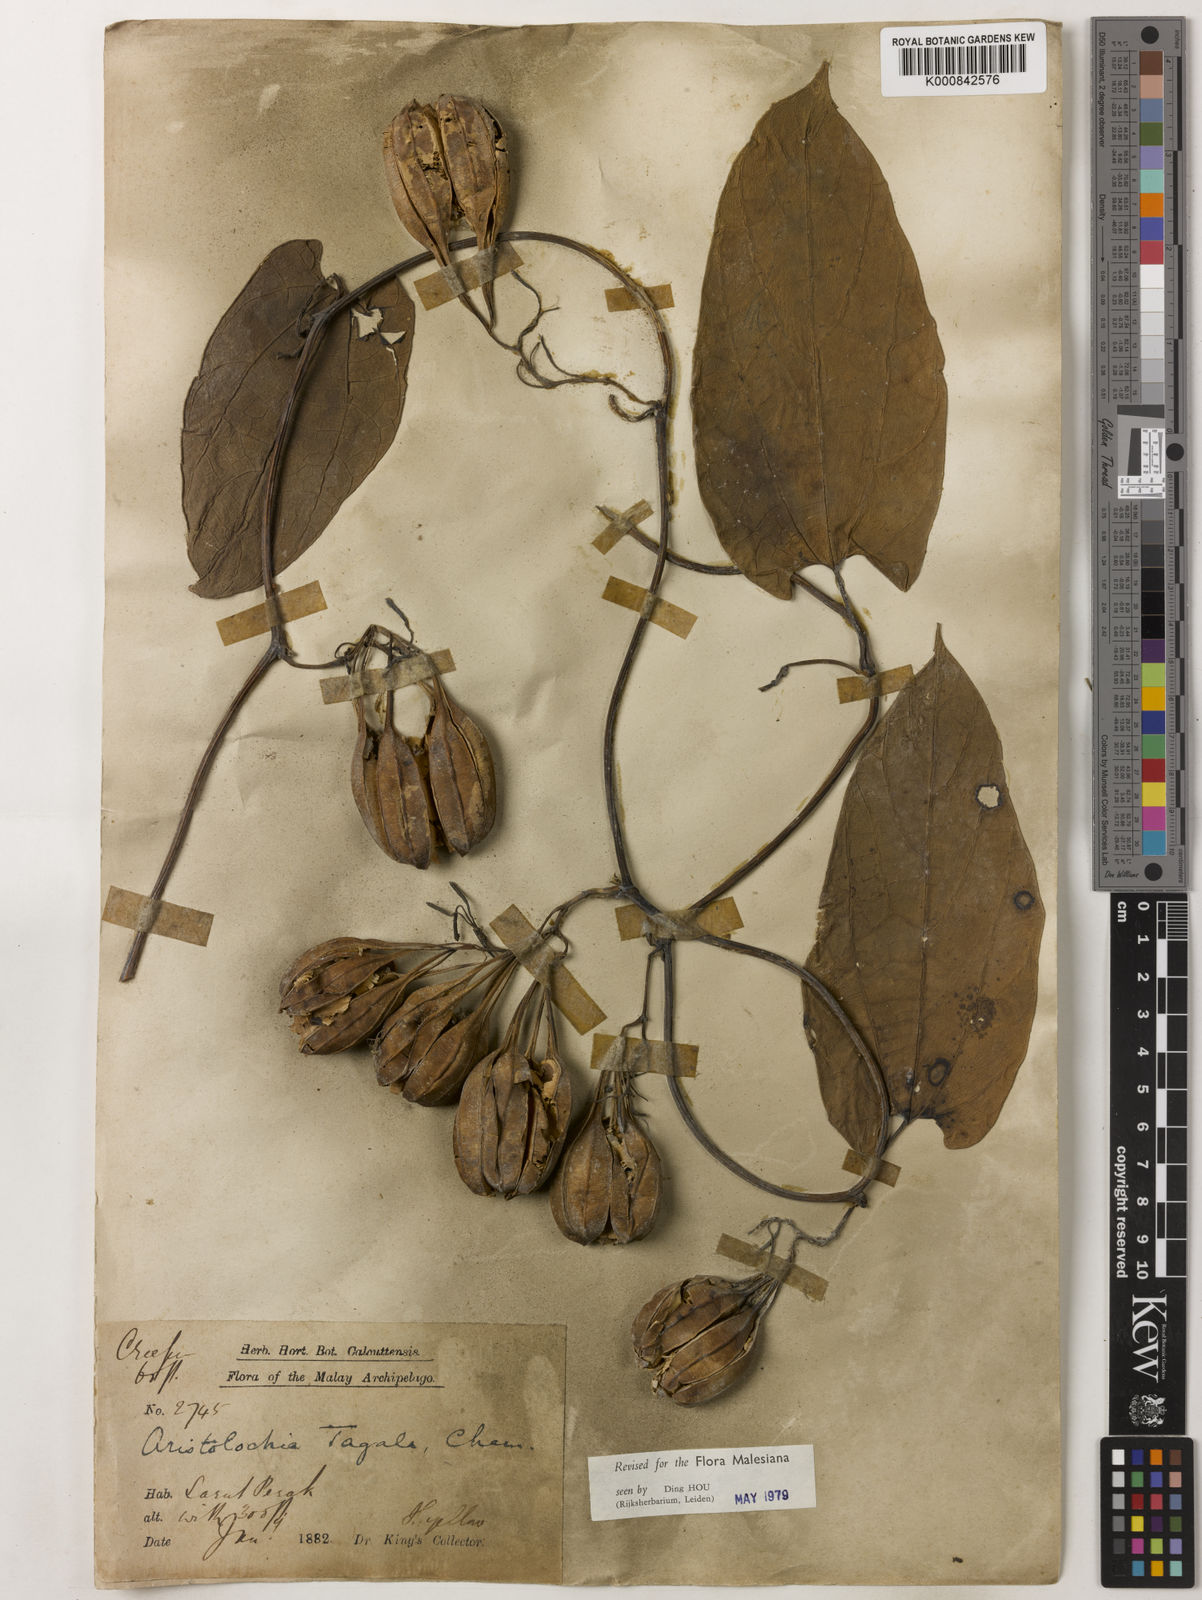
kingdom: Plantae
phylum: Tracheophyta
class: Magnoliopsida
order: Piperales
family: Aristolochiaceae
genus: Aristolochia
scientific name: Aristolochia acuminata
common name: Indian birthwort
